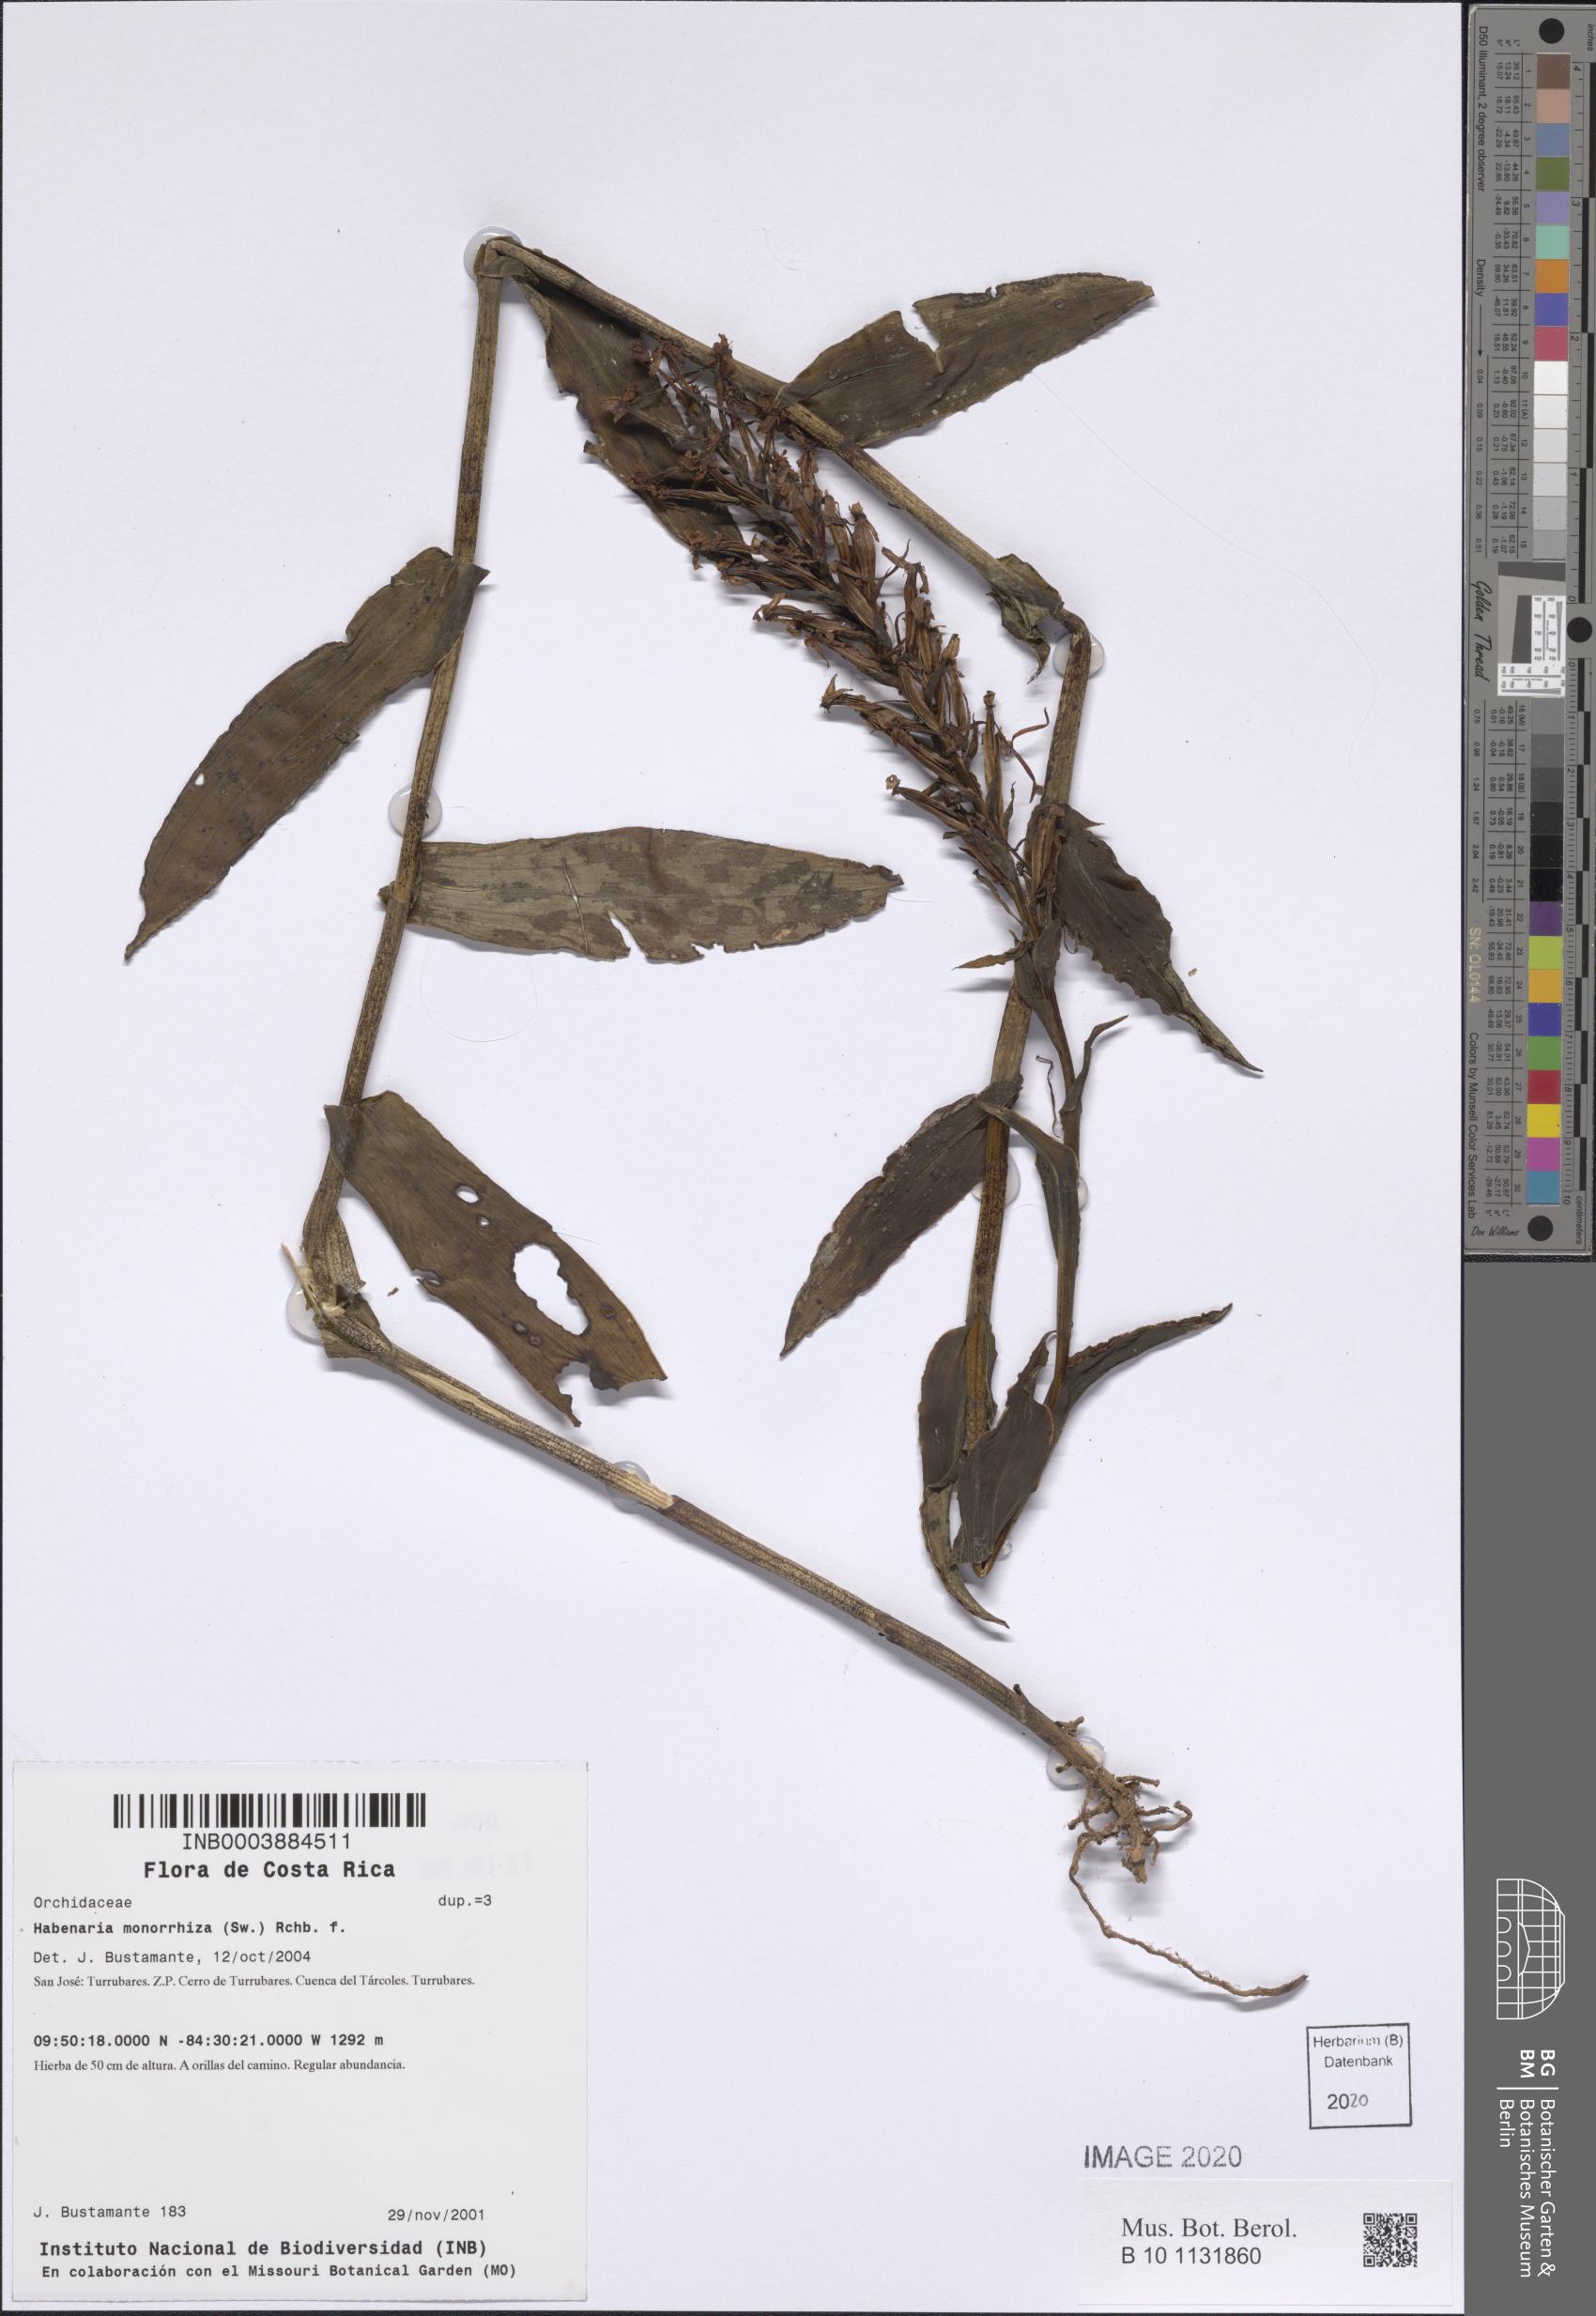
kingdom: Plantae
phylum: Tracheophyta
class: Liliopsida
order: Asparagales
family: Orchidaceae
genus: Habenaria
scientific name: Habenaria monorrhiza
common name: Tropical bog orchid
